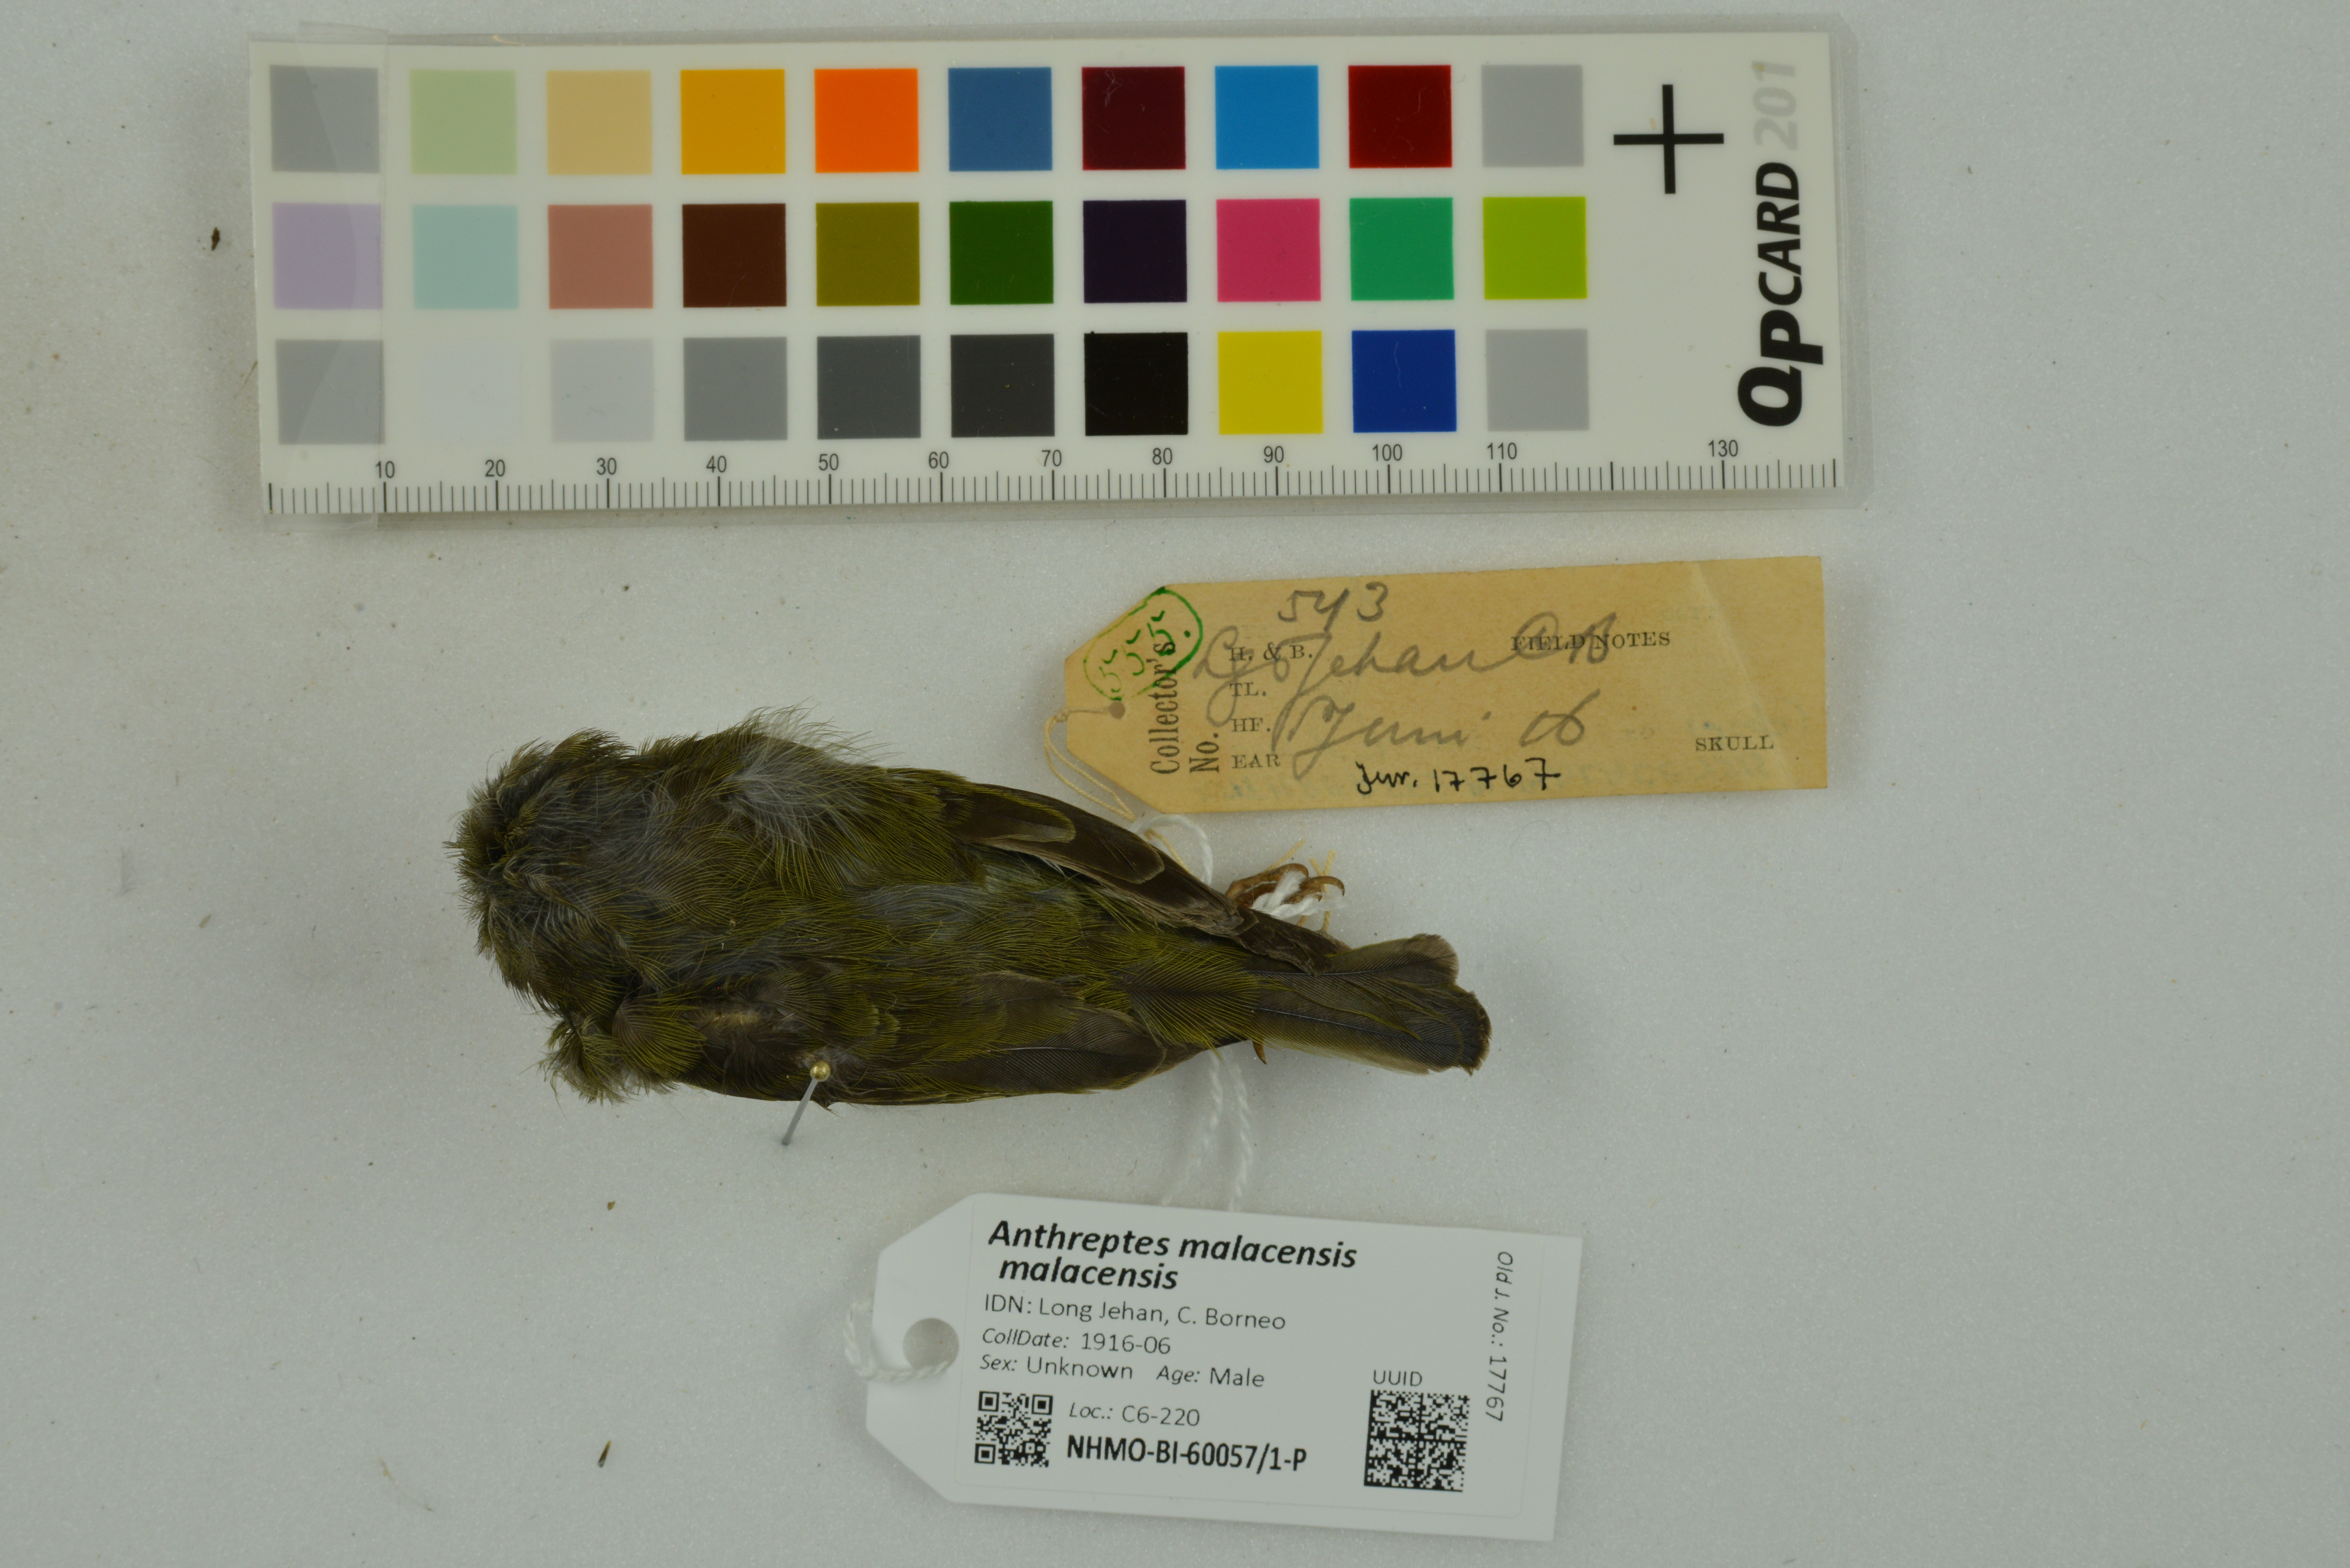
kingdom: Animalia
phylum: Chordata
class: Aves
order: Passeriformes
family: Nectariniidae
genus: Anthreptes
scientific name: Anthreptes malacensis
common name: Brown-throated sunbird
